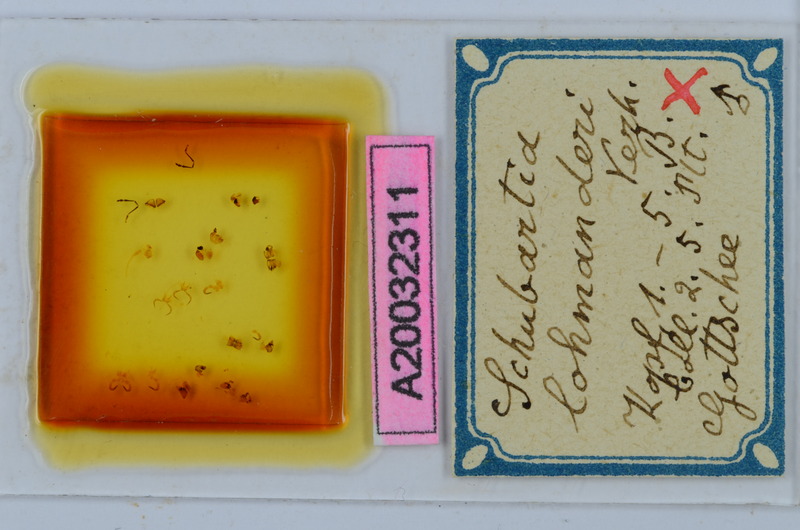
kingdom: Animalia
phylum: Arthropoda
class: Diplopoda
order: Chordeumatida
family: Attemsiidae
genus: Schubartia
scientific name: Schubartia lohmanderi
